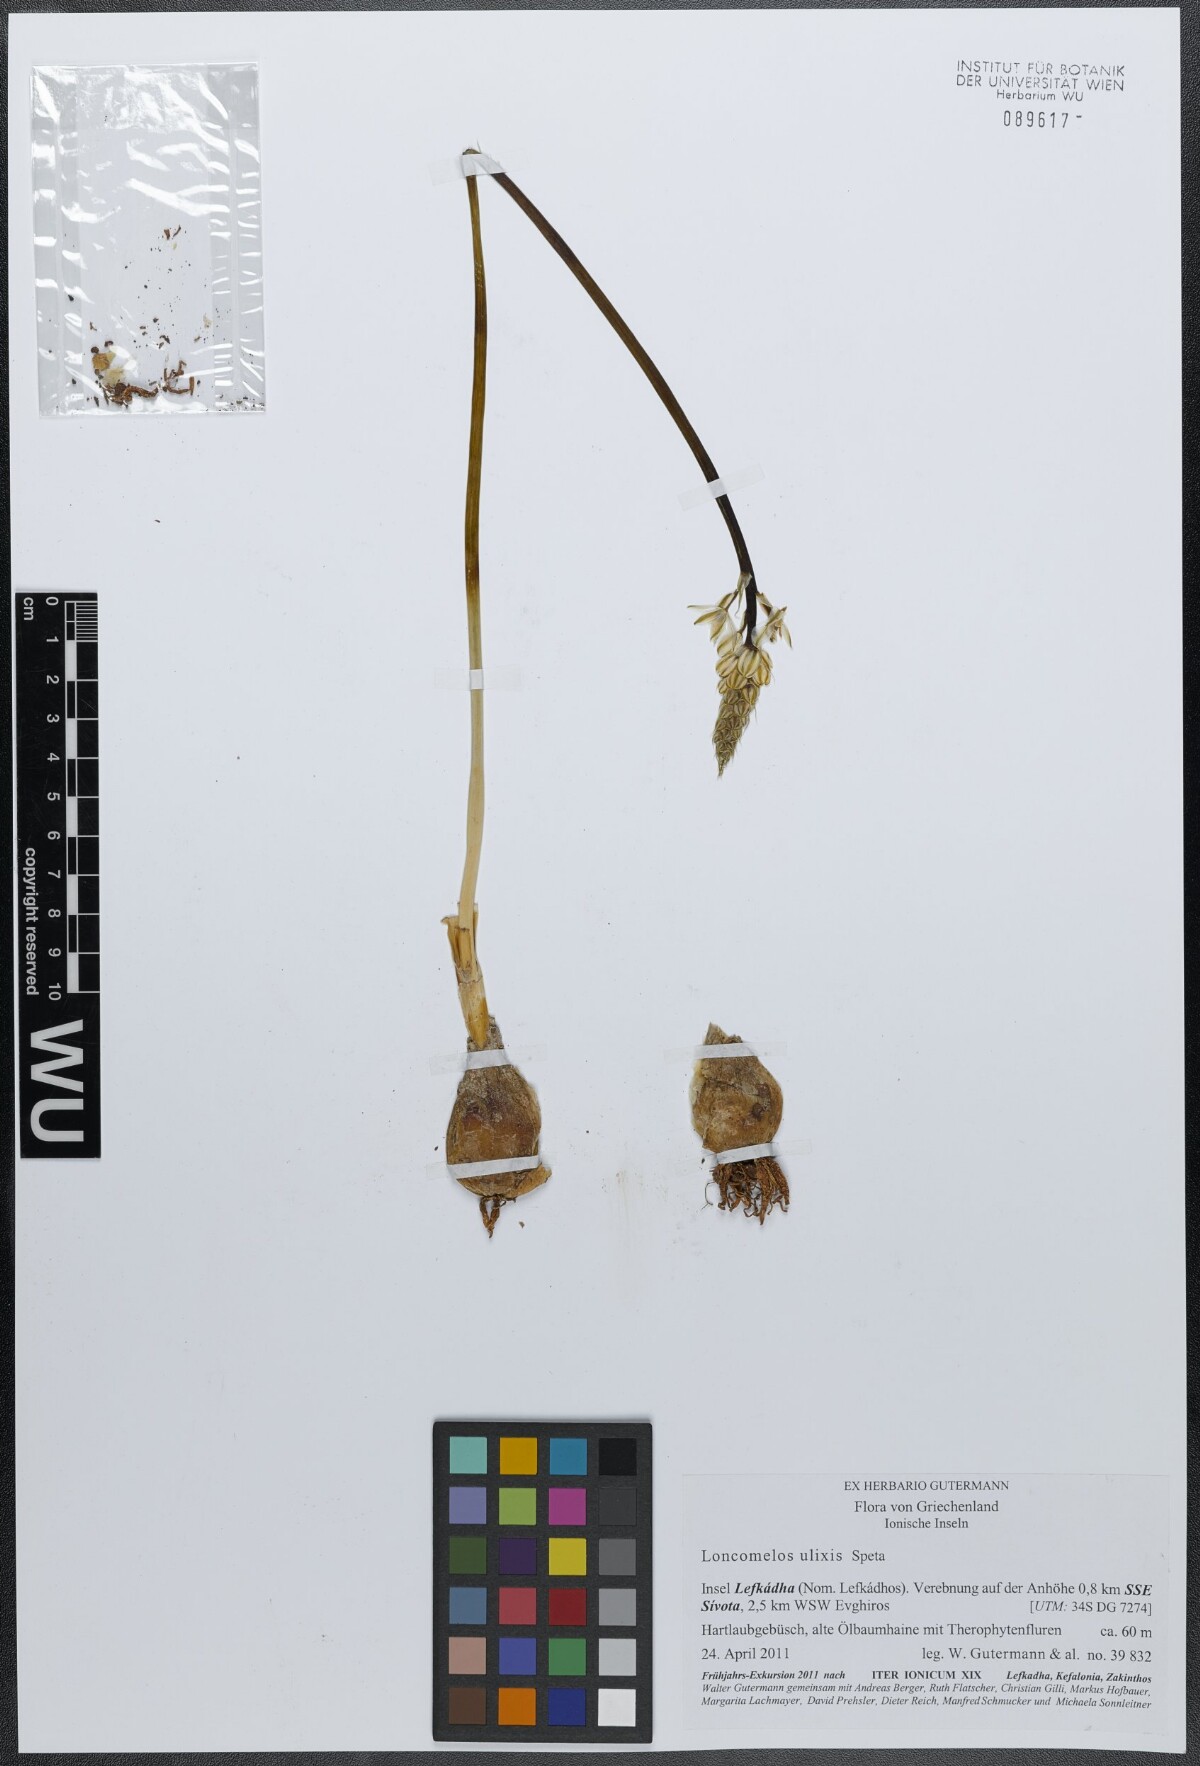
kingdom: Plantae
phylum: Tracheophyta
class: Liliopsida
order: Asparagales
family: Asparagaceae
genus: Ornithogalum
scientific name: Ornithogalum ulixis
